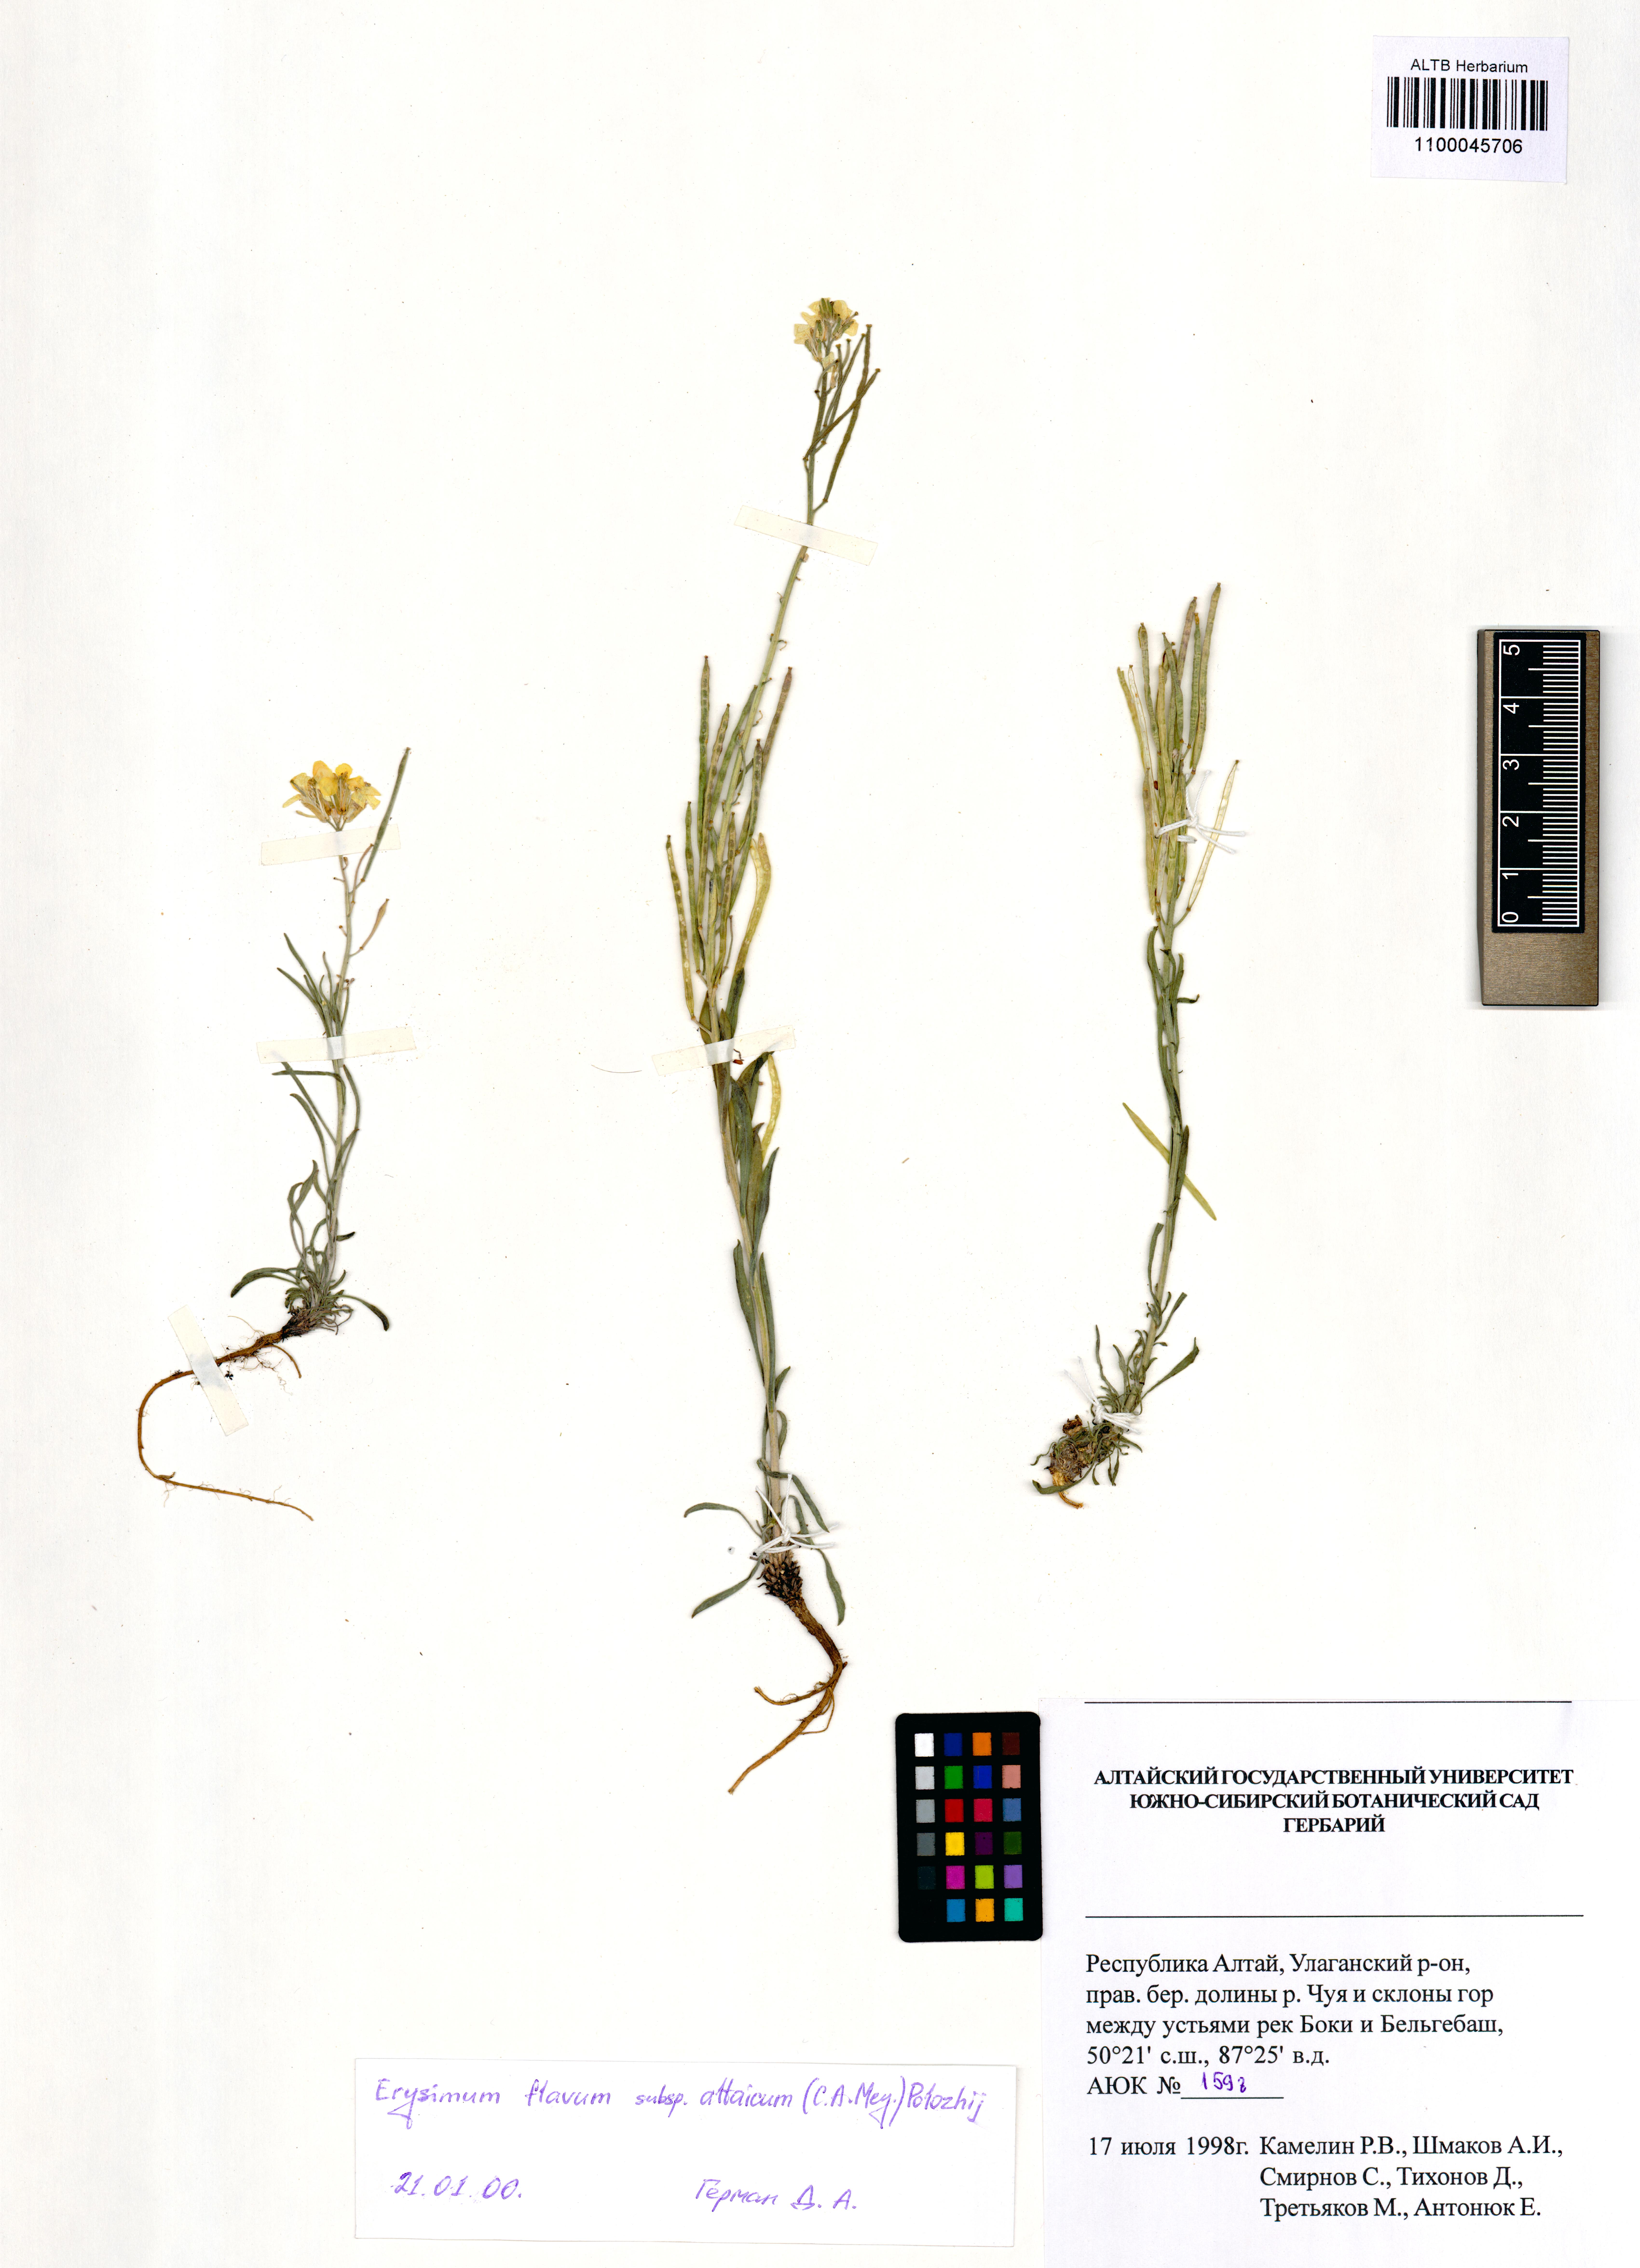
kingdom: Plantae
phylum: Tracheophyta
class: Magnoliopsida
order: Brassicales
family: Brassicaceae
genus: Erysimum
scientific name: Erysimum flavum
